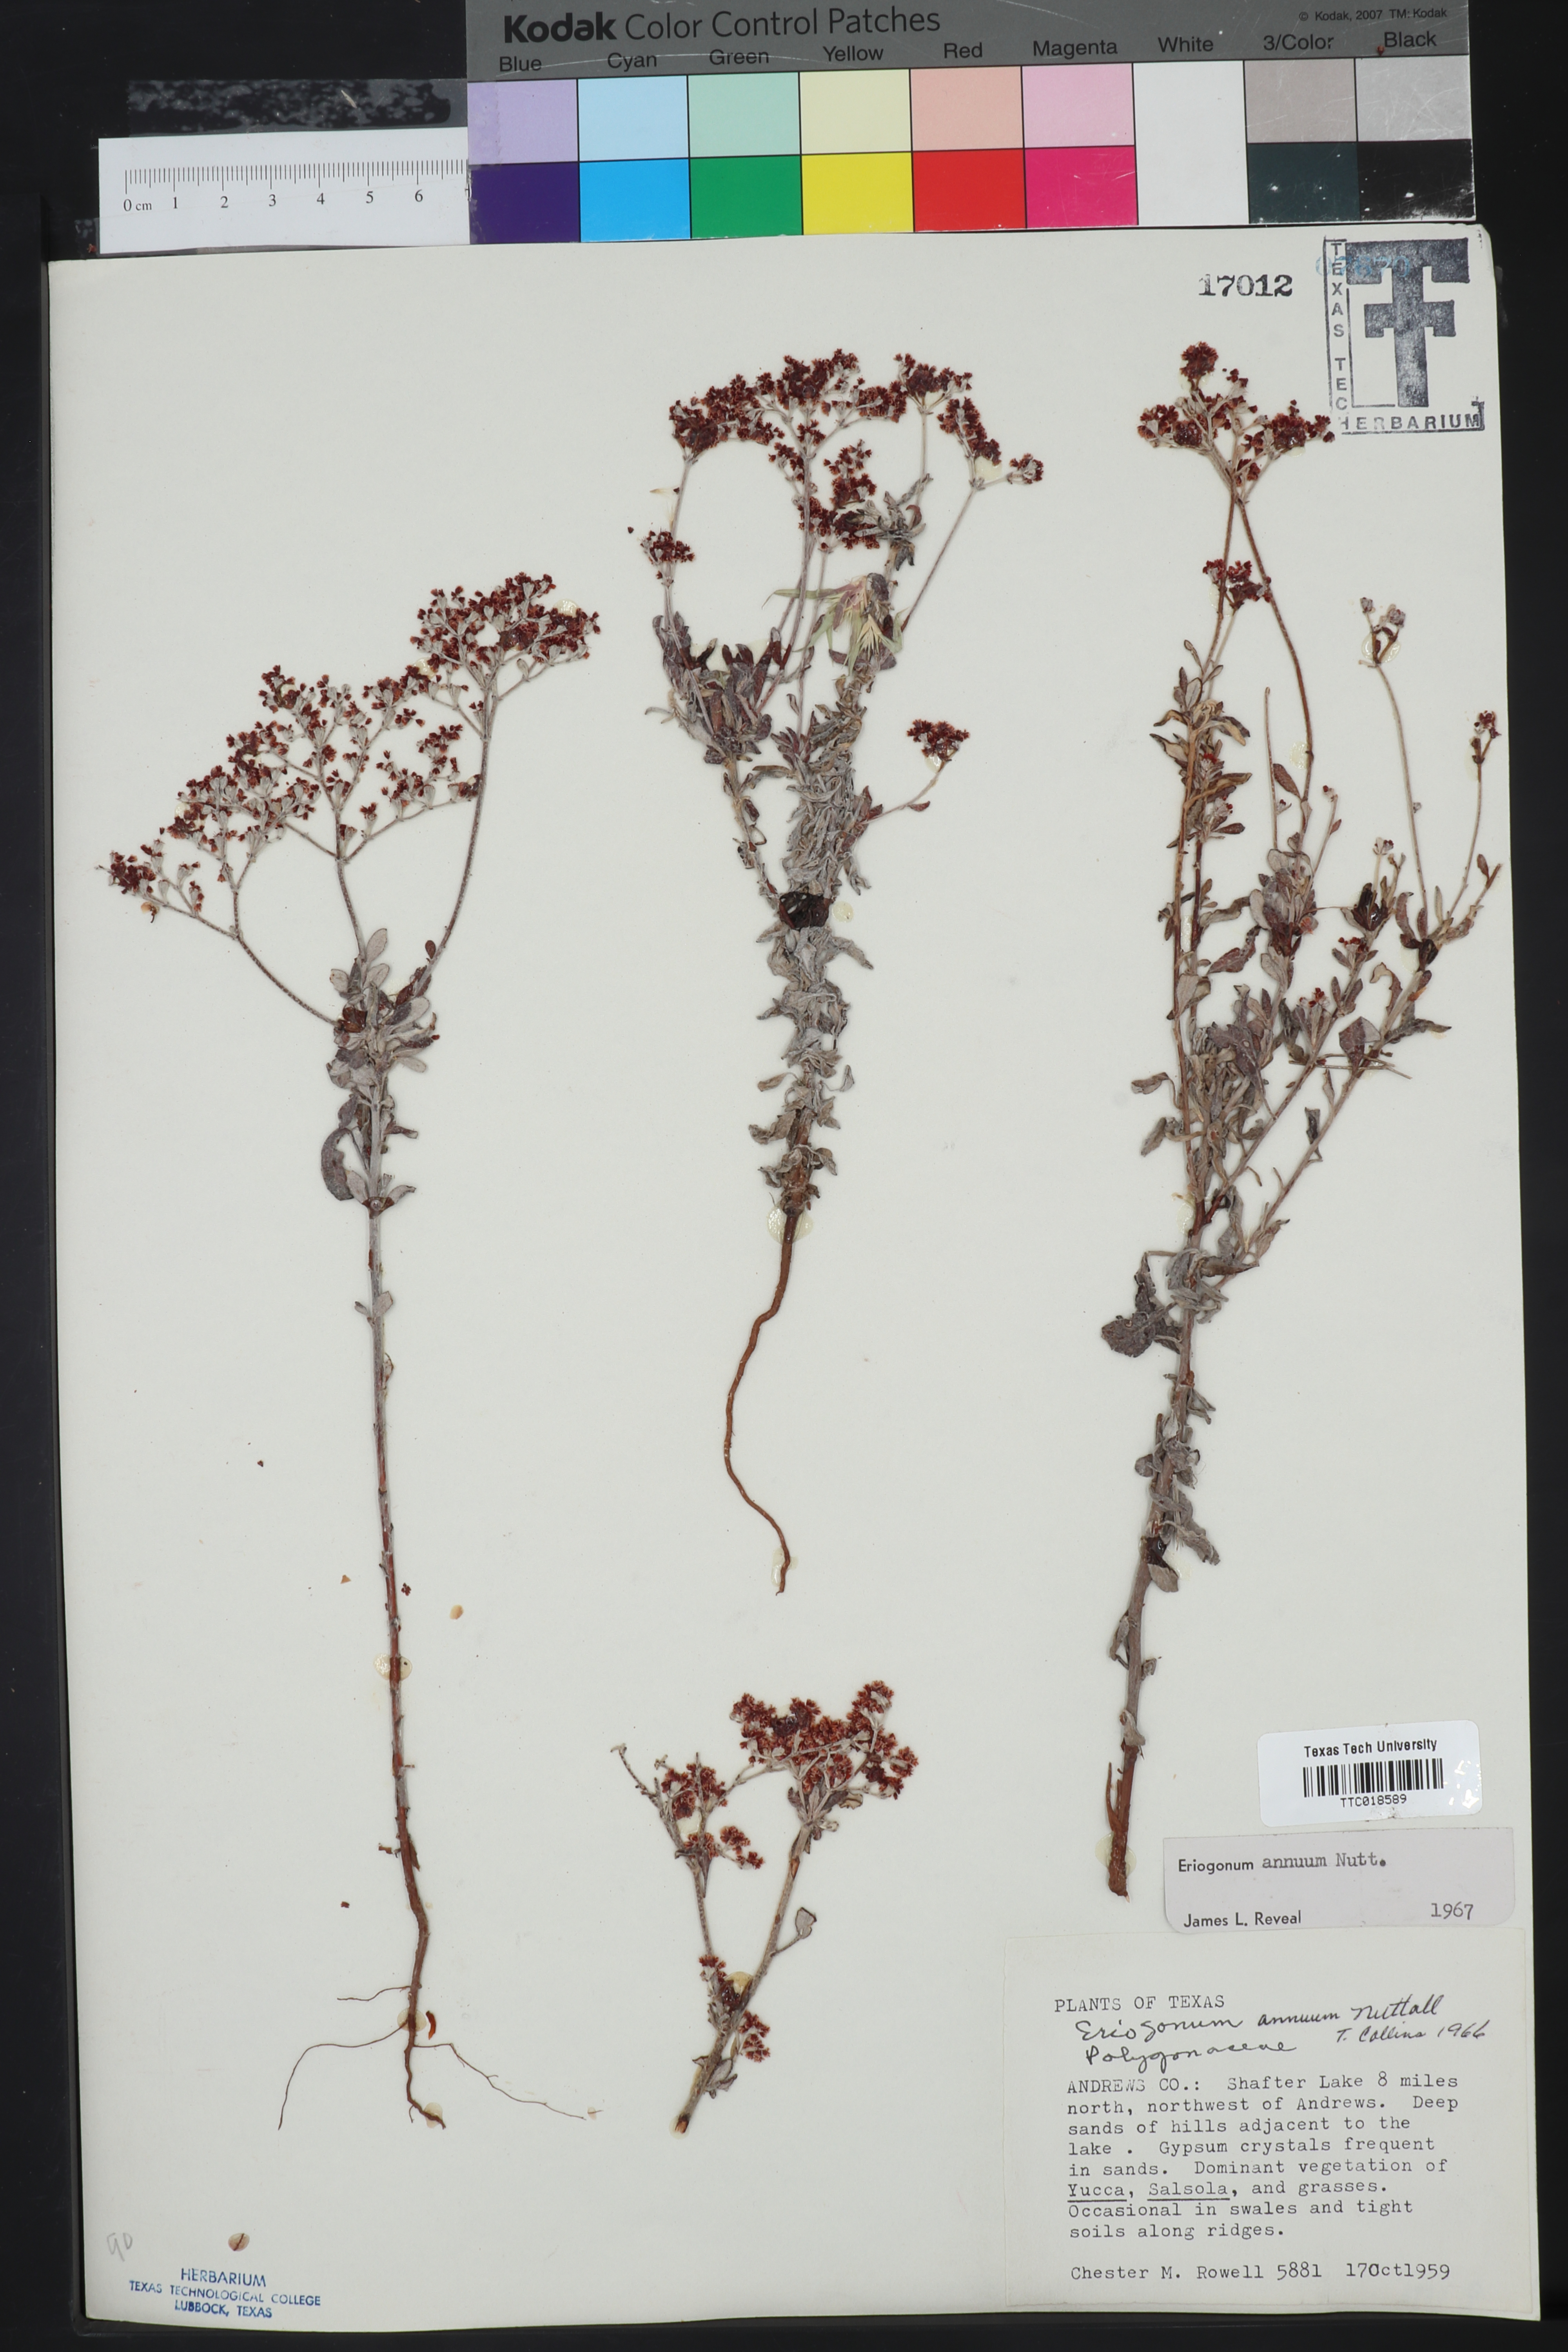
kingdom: Plantae
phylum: Tracheophyta
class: Magnoliopsida
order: Caryophyllales
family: Polygonaceae
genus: Eriogonum
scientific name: Eriogonum annuum
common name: Annual wild buckwheat
